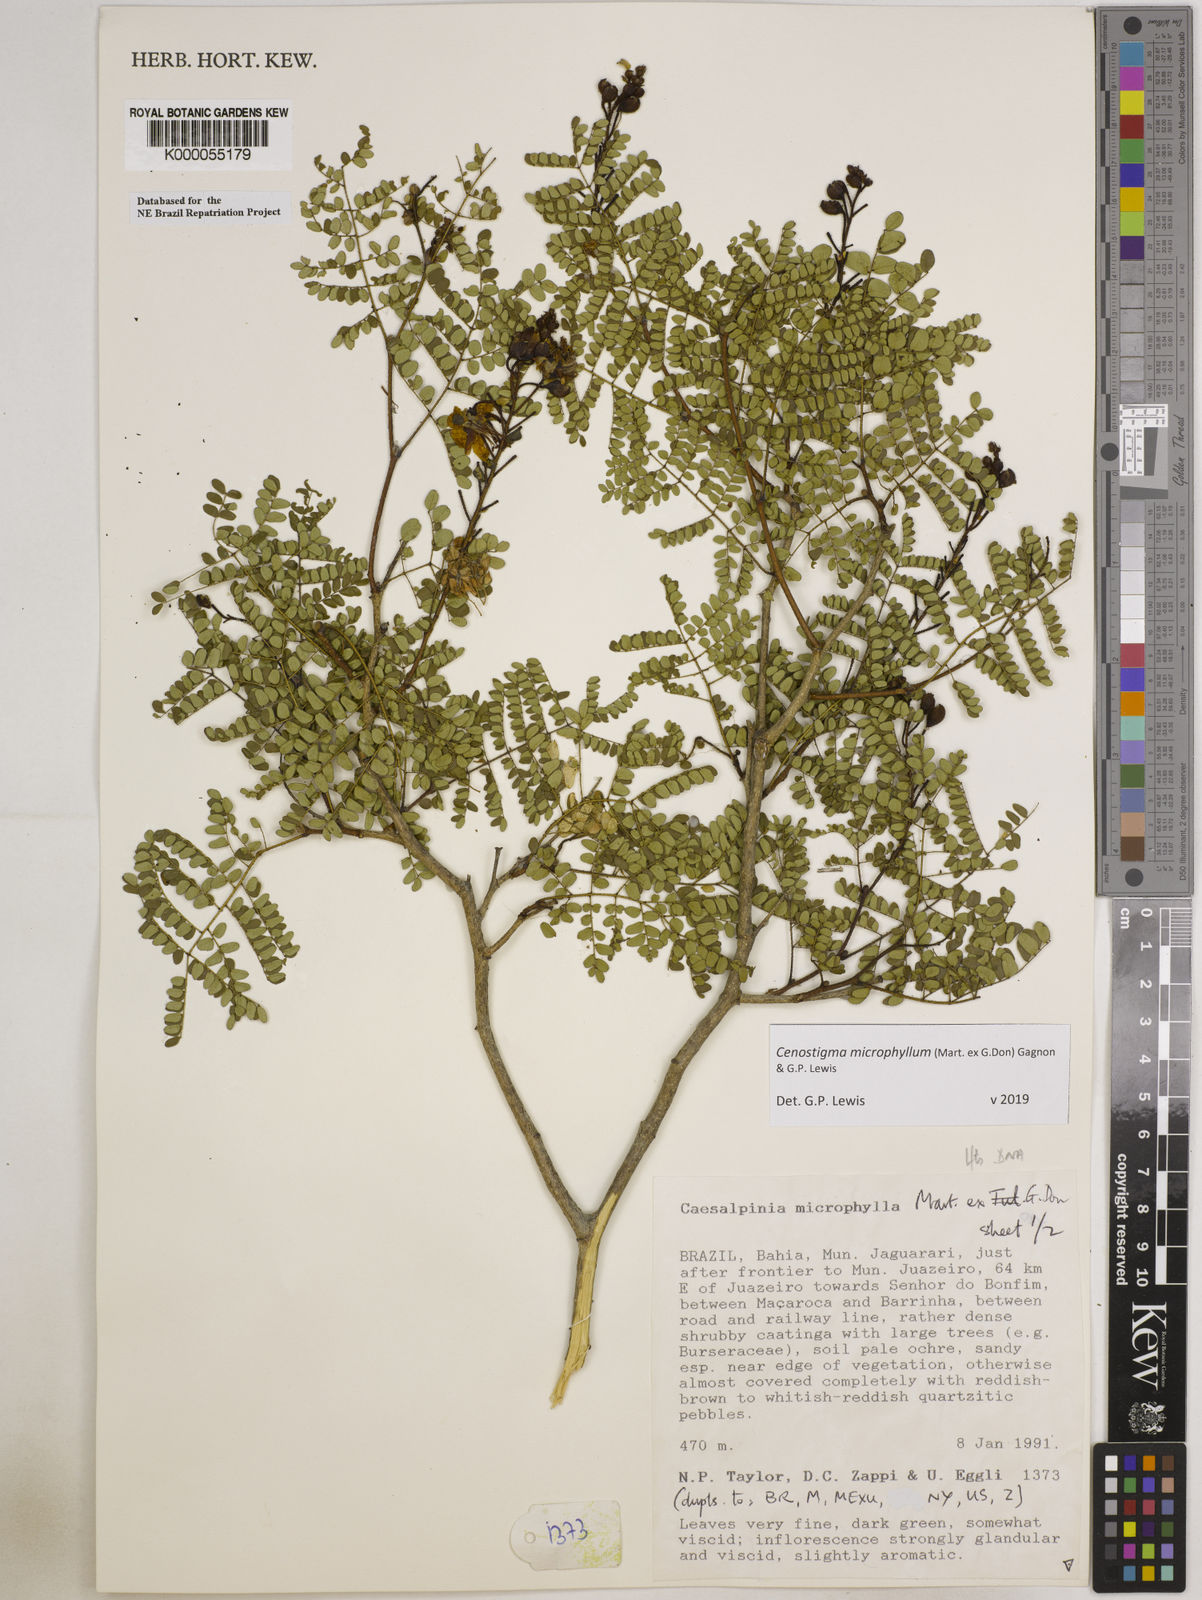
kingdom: Plantae
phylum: Tracheophyta
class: Magnoliopsida
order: Fabales
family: Fabaceae
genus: Cenostigma
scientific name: Cenostigma microphyllum
